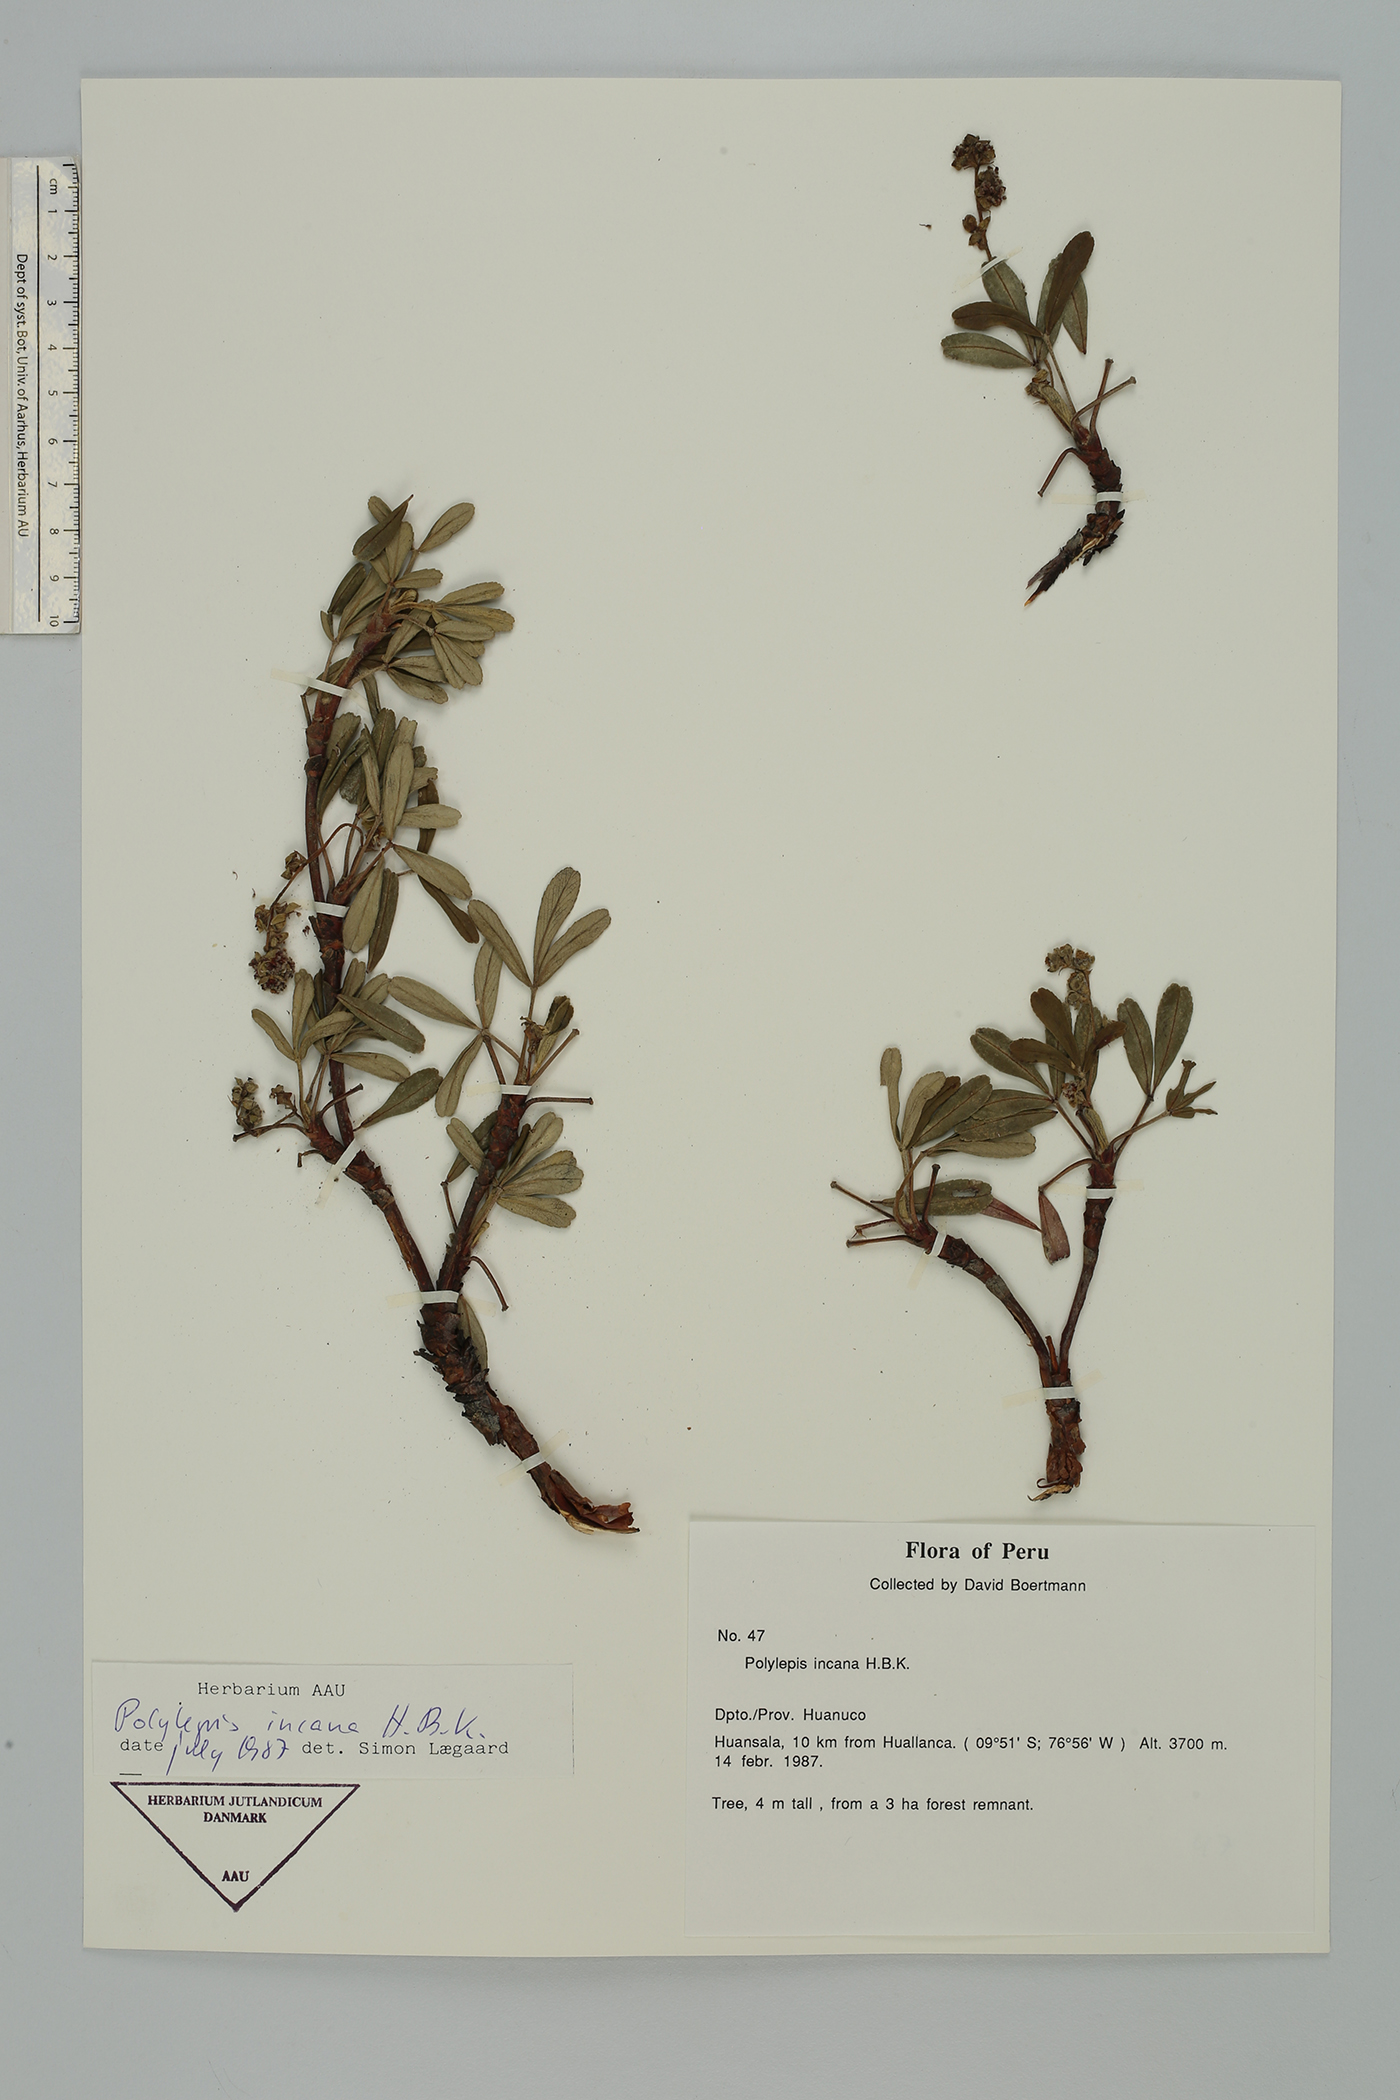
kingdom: Plantae
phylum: Tracheophyta
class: Magnoliopsida
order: Rosales
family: Rosaceae
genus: Polylepis
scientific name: Polylepis incana
